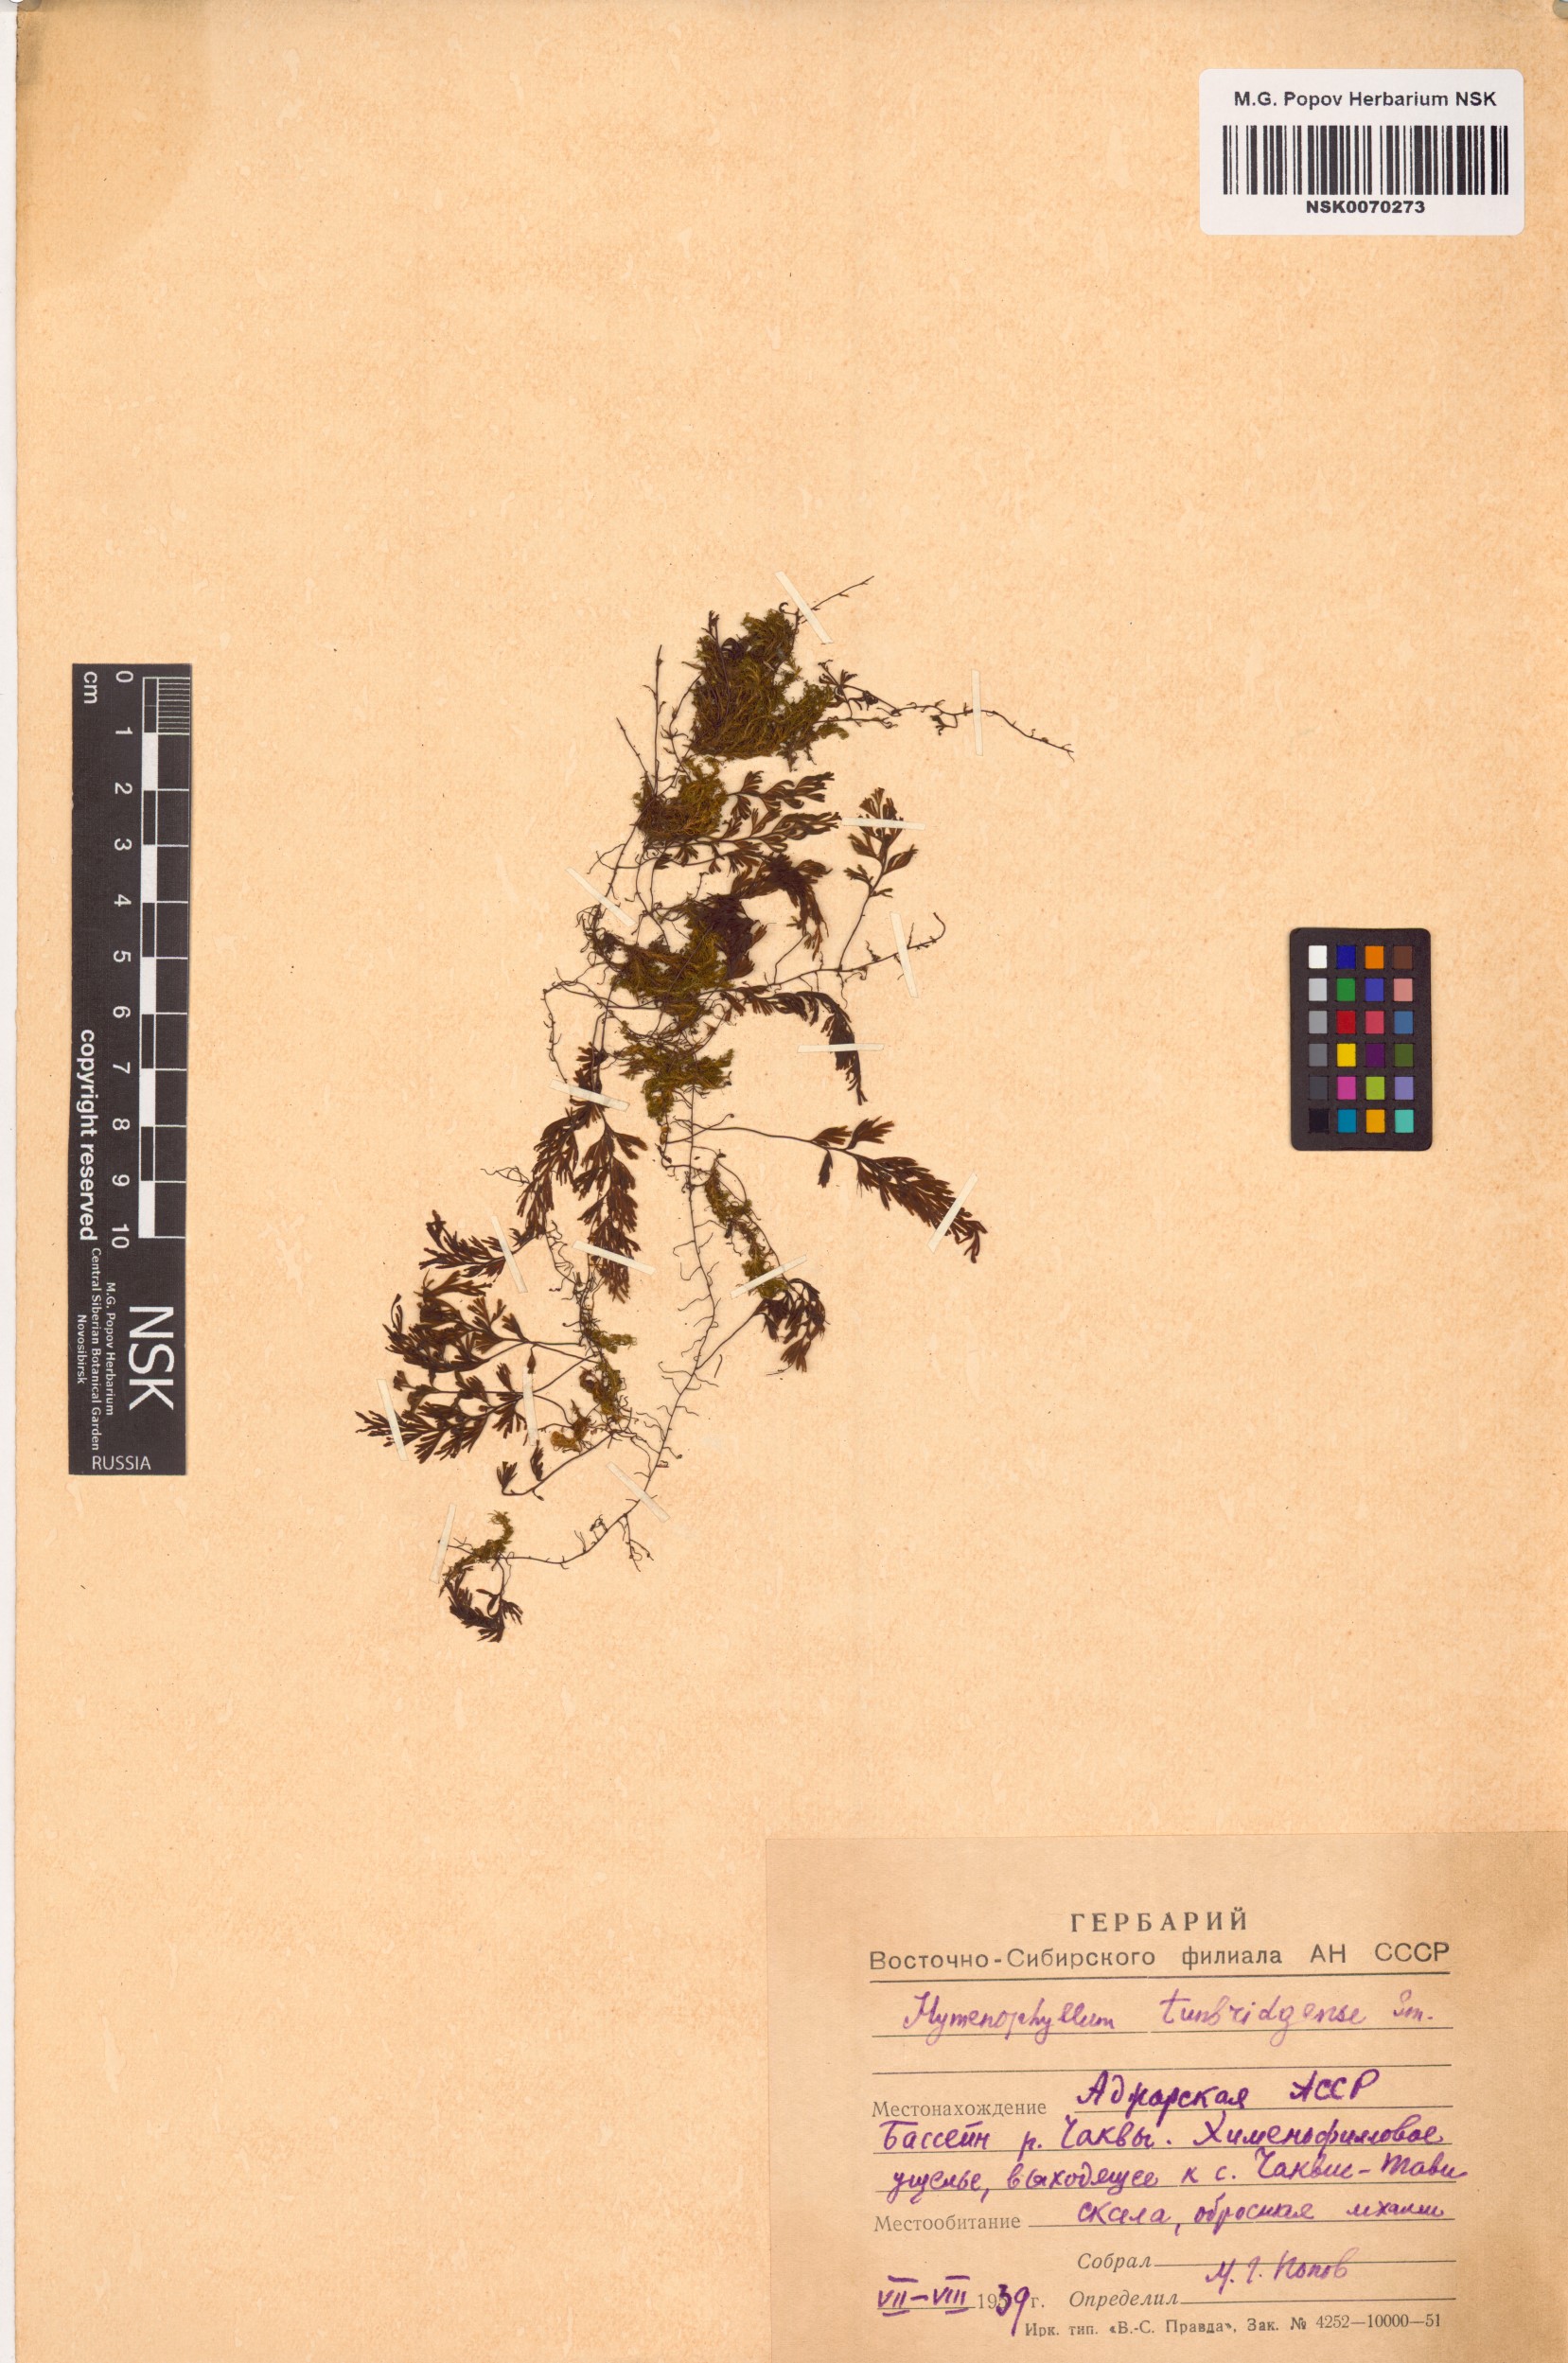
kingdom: Plantae
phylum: Tracheophyta
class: Polypodiopsida
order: Hymenophyllales
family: Hymenophyllaceae
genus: Hymenophyllum
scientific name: Hymenophyllum tunbrigense
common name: Tunbridge filmy fern
